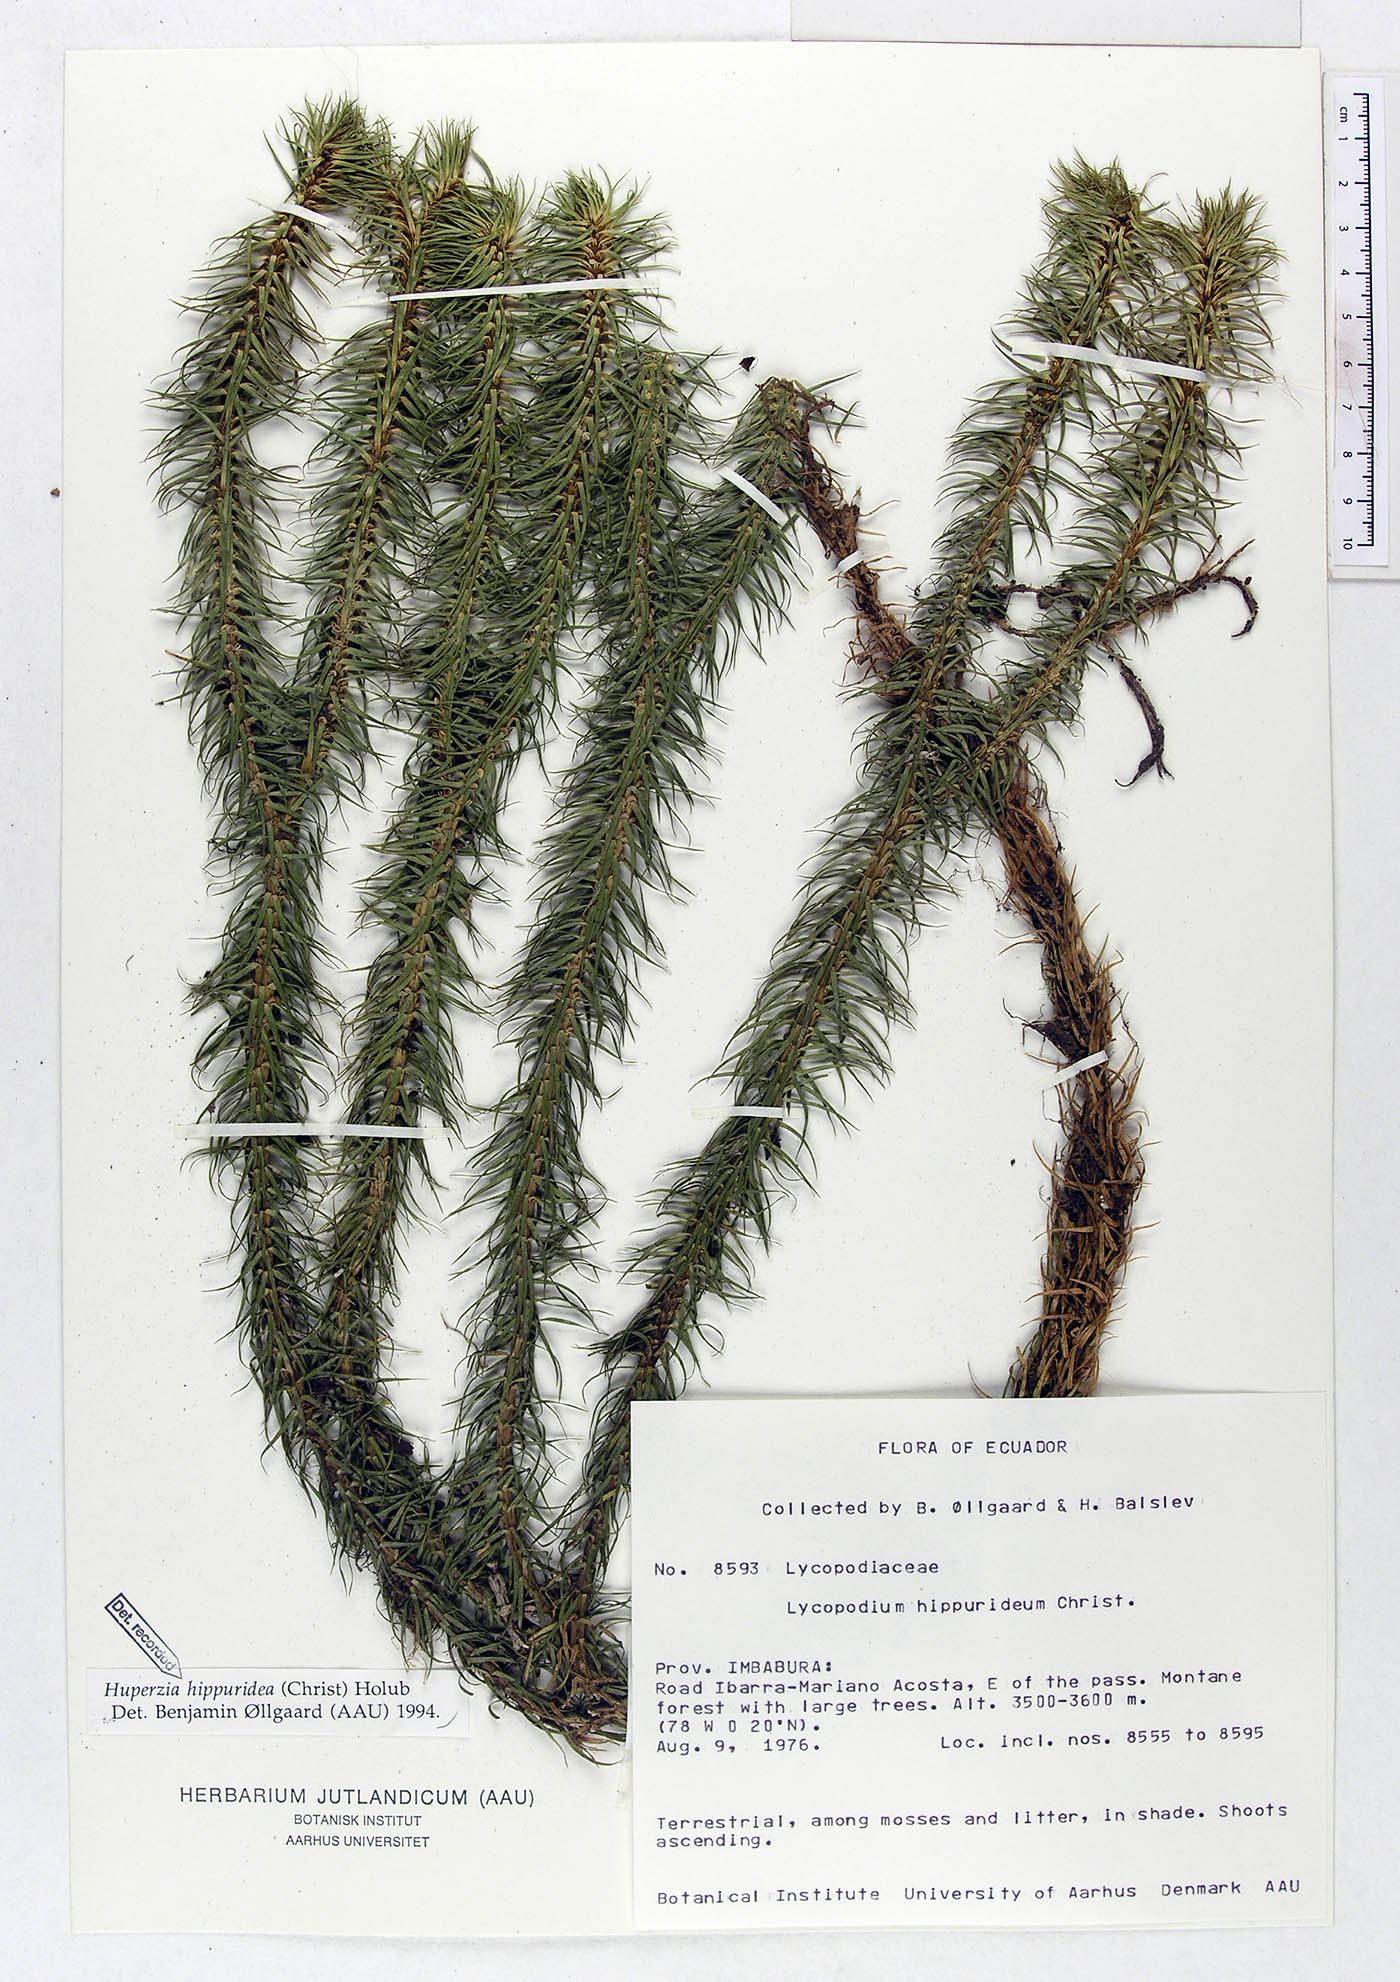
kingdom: Plantae
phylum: Tracheophyta
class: Lycopodiopsida
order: Lycopodiales
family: Lycopodiaceae
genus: Phlegmariurus
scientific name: Phlegmariurus hippurideus
